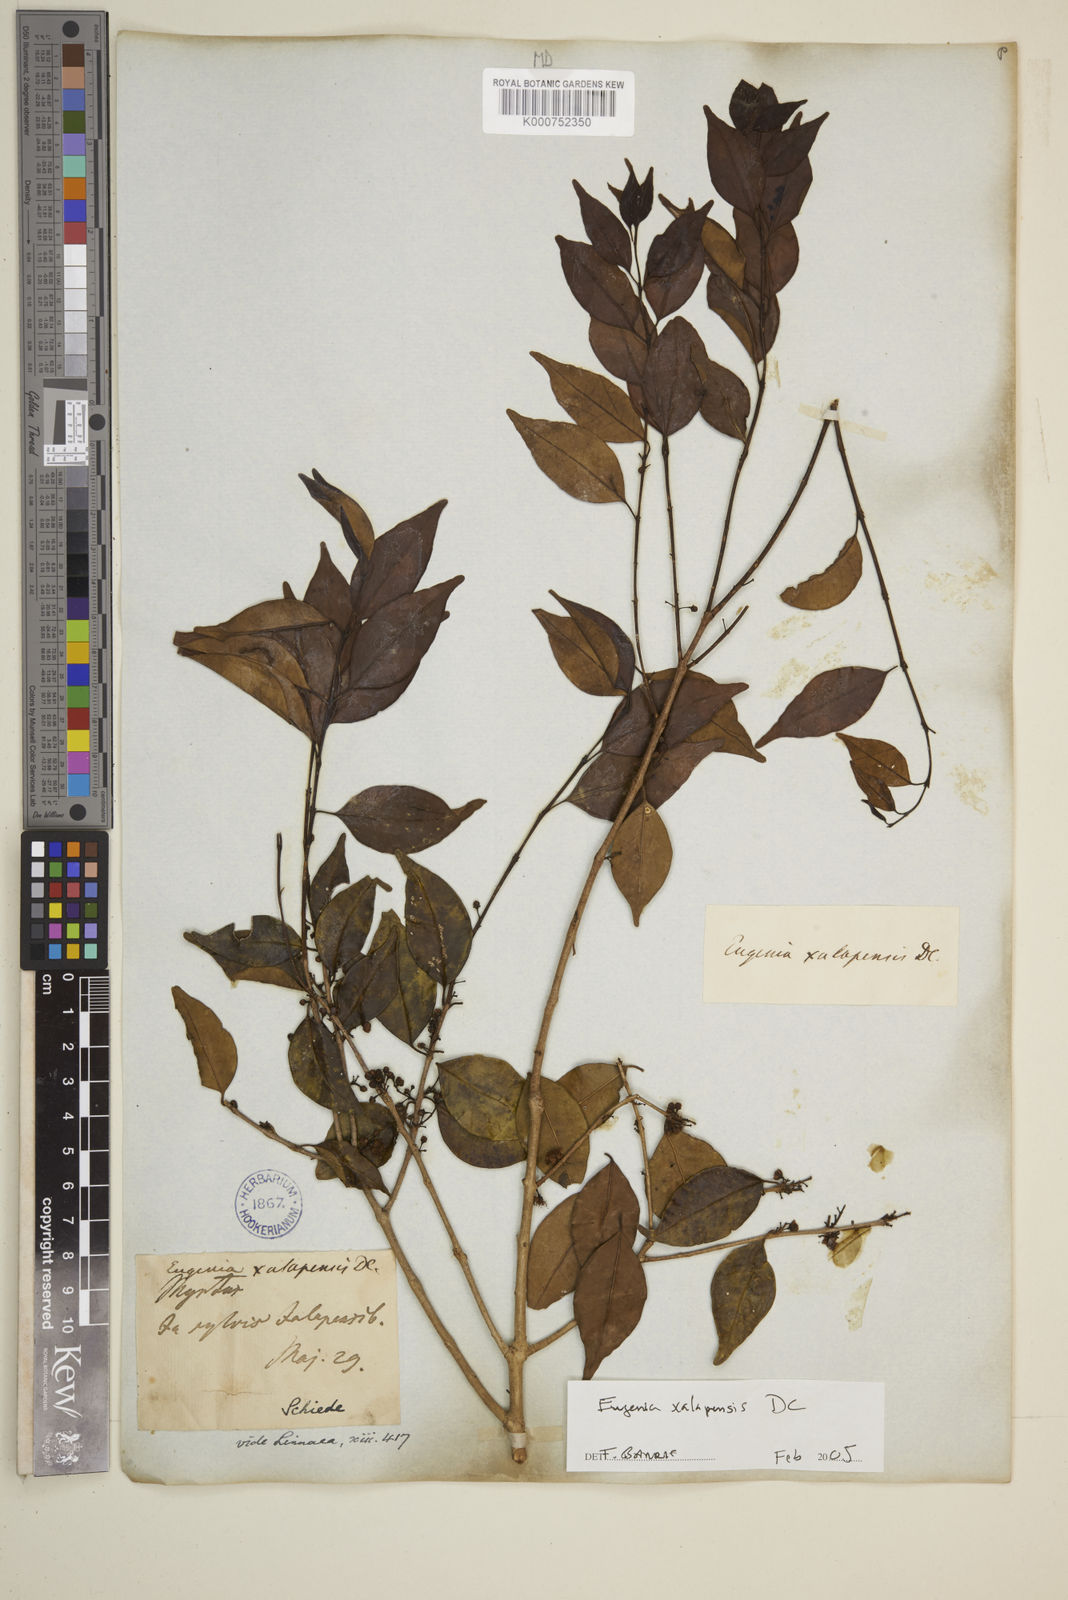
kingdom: Plantae
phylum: Tracheophyta
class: Magnoliopsida
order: Myrtales
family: Myrtaceae
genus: Eugenia
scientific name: Eugenia xalapensis
